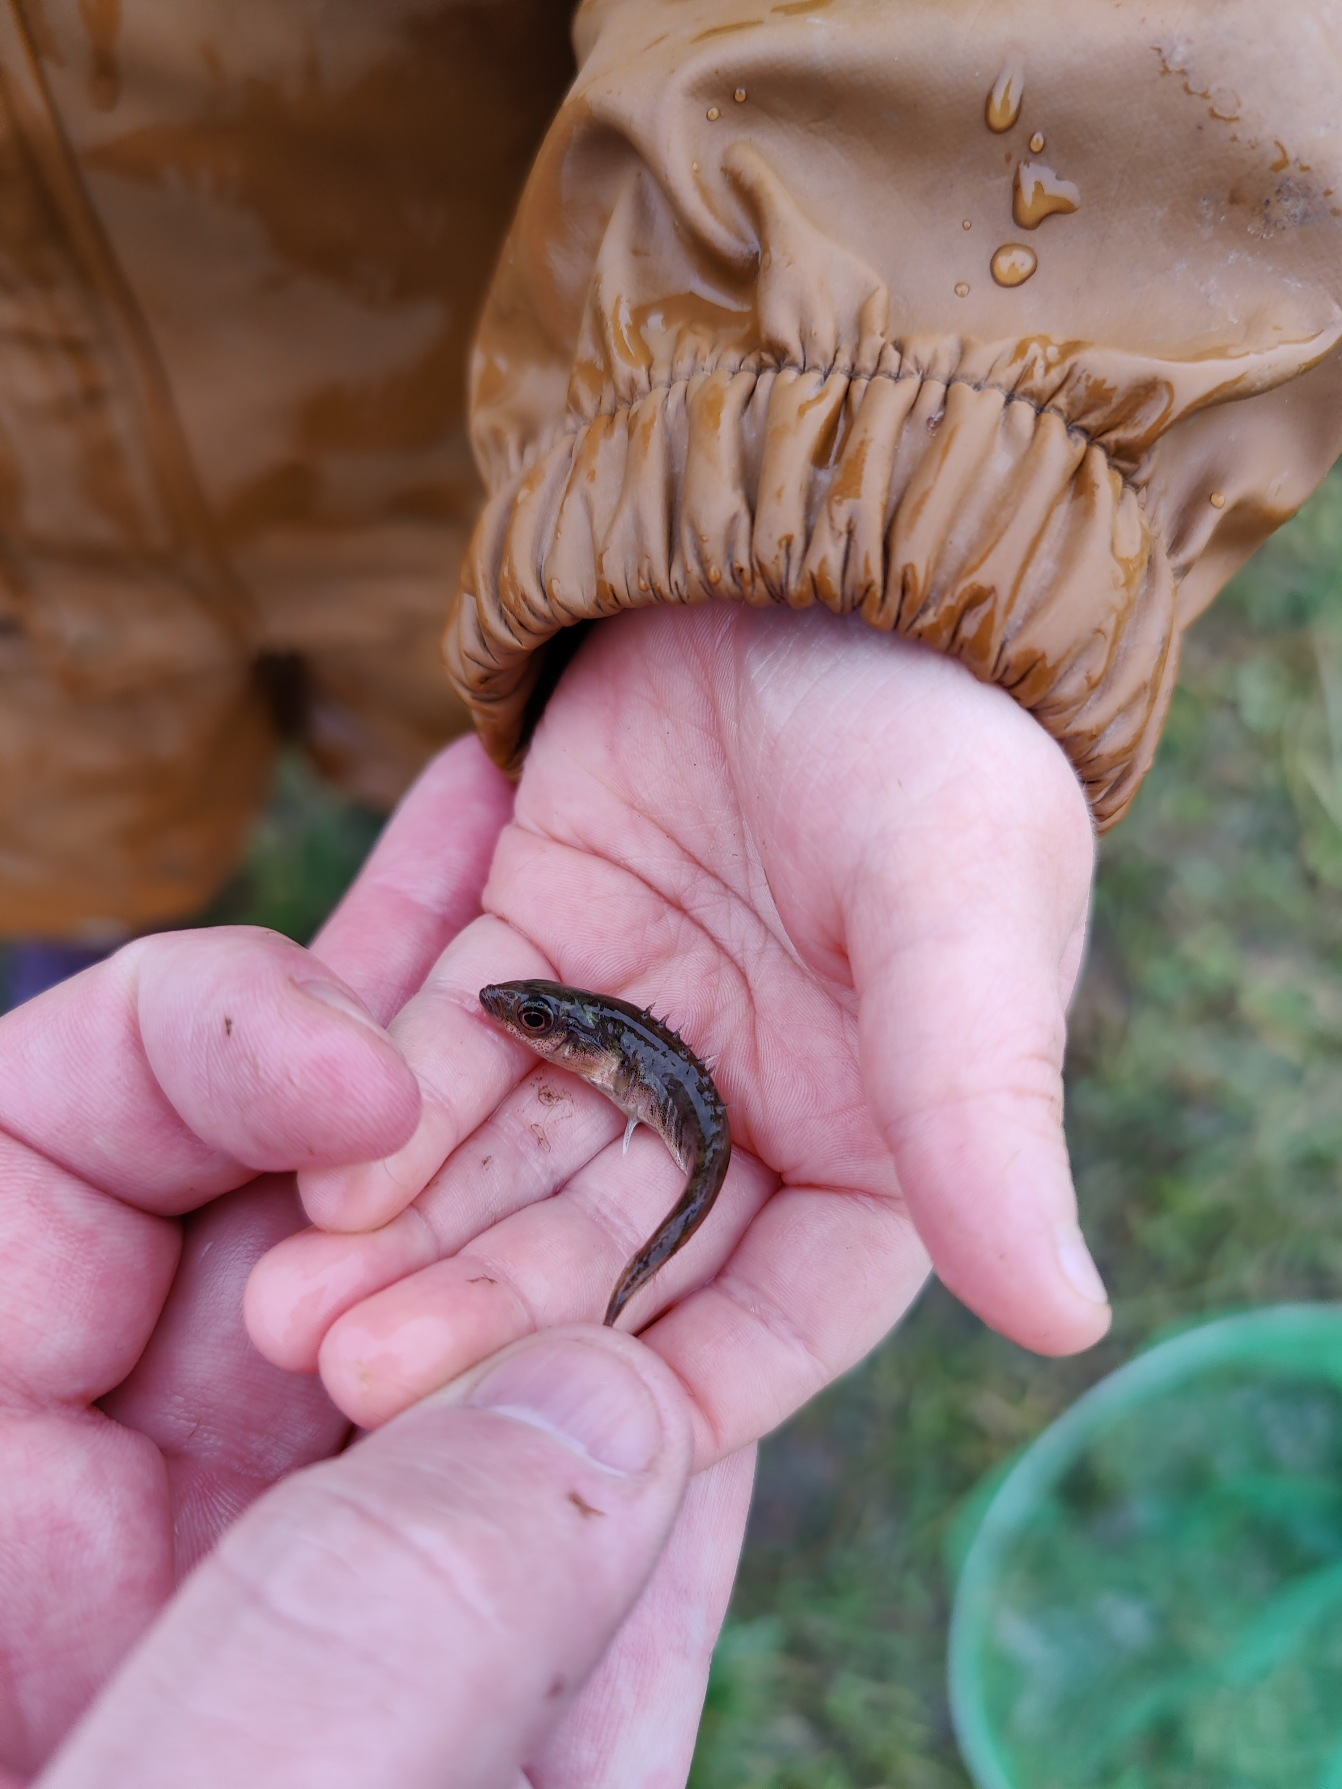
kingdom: Animalia
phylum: Chordata
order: Gasterosteiformes
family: Gasterosteidae
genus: Pungitius
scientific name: Pungitius pungitius
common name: Nipigget hundestejle
